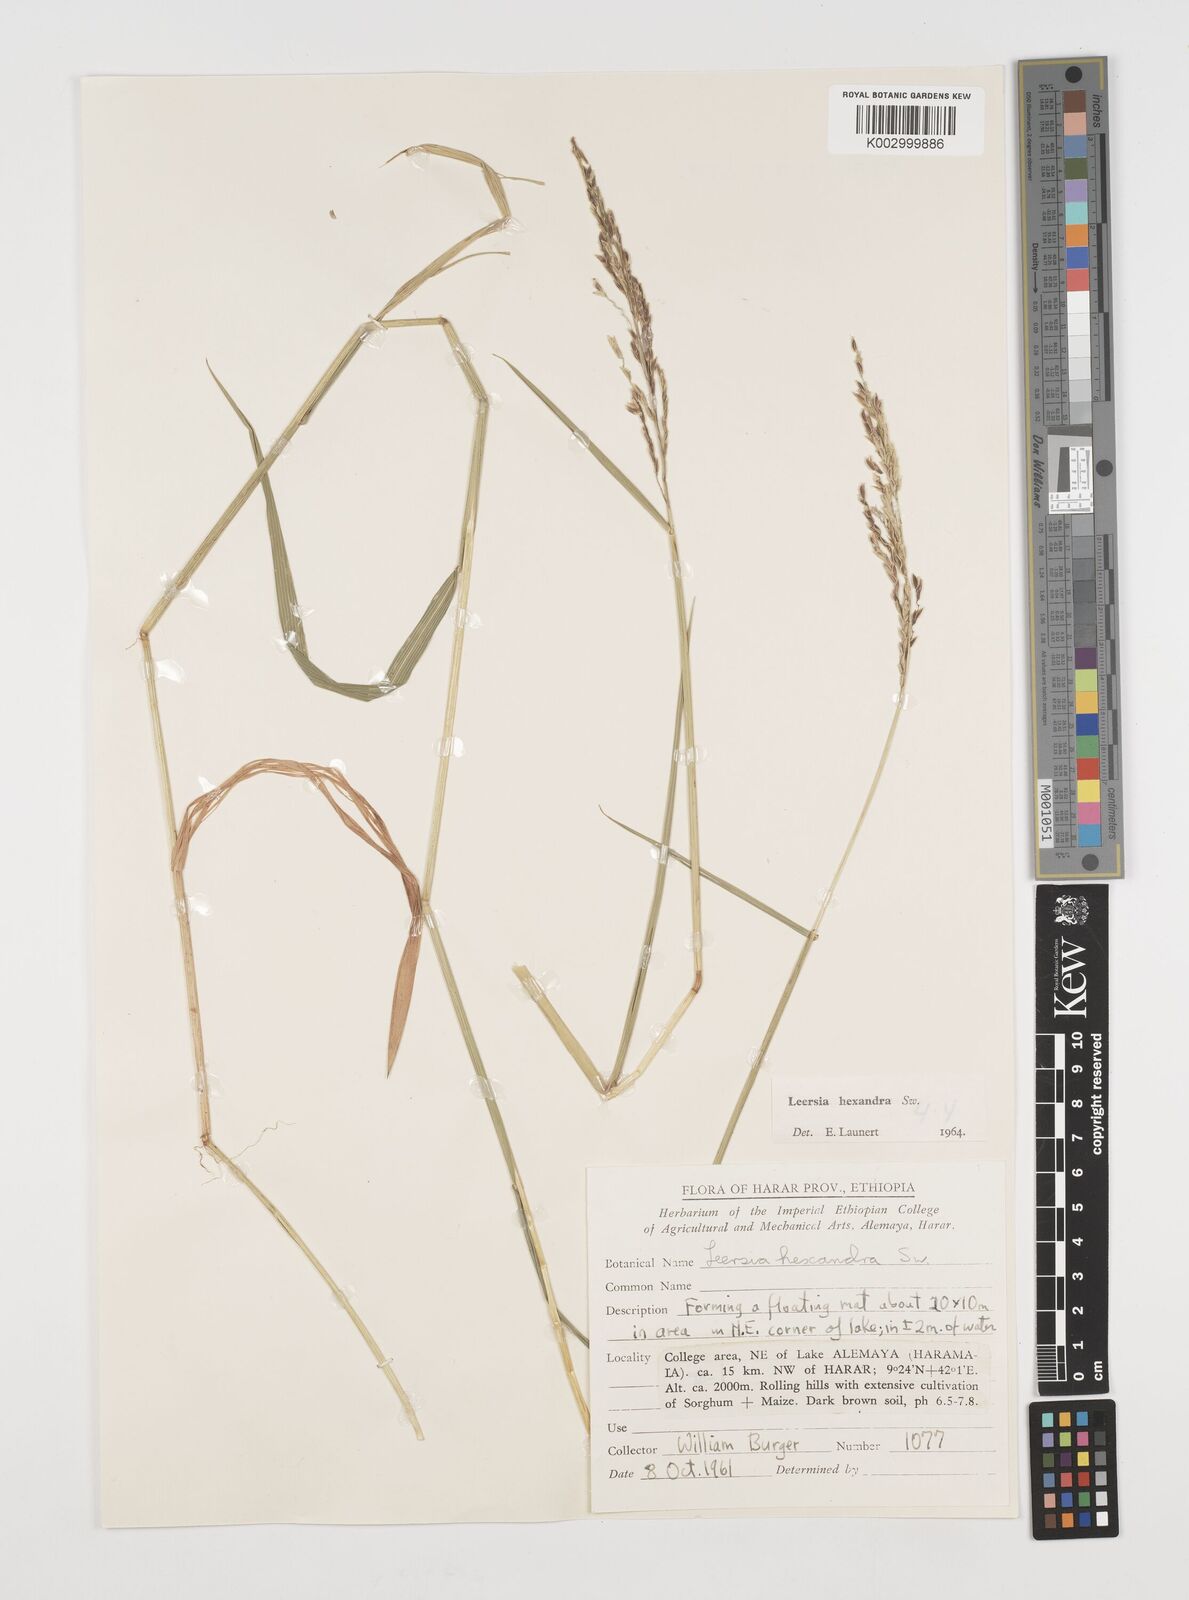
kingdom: Plantae
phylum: Tracheophyta
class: Liliopsida
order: Poales
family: Poaceae
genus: Leersia
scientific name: Leersia hexandra
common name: Southern cut grass
